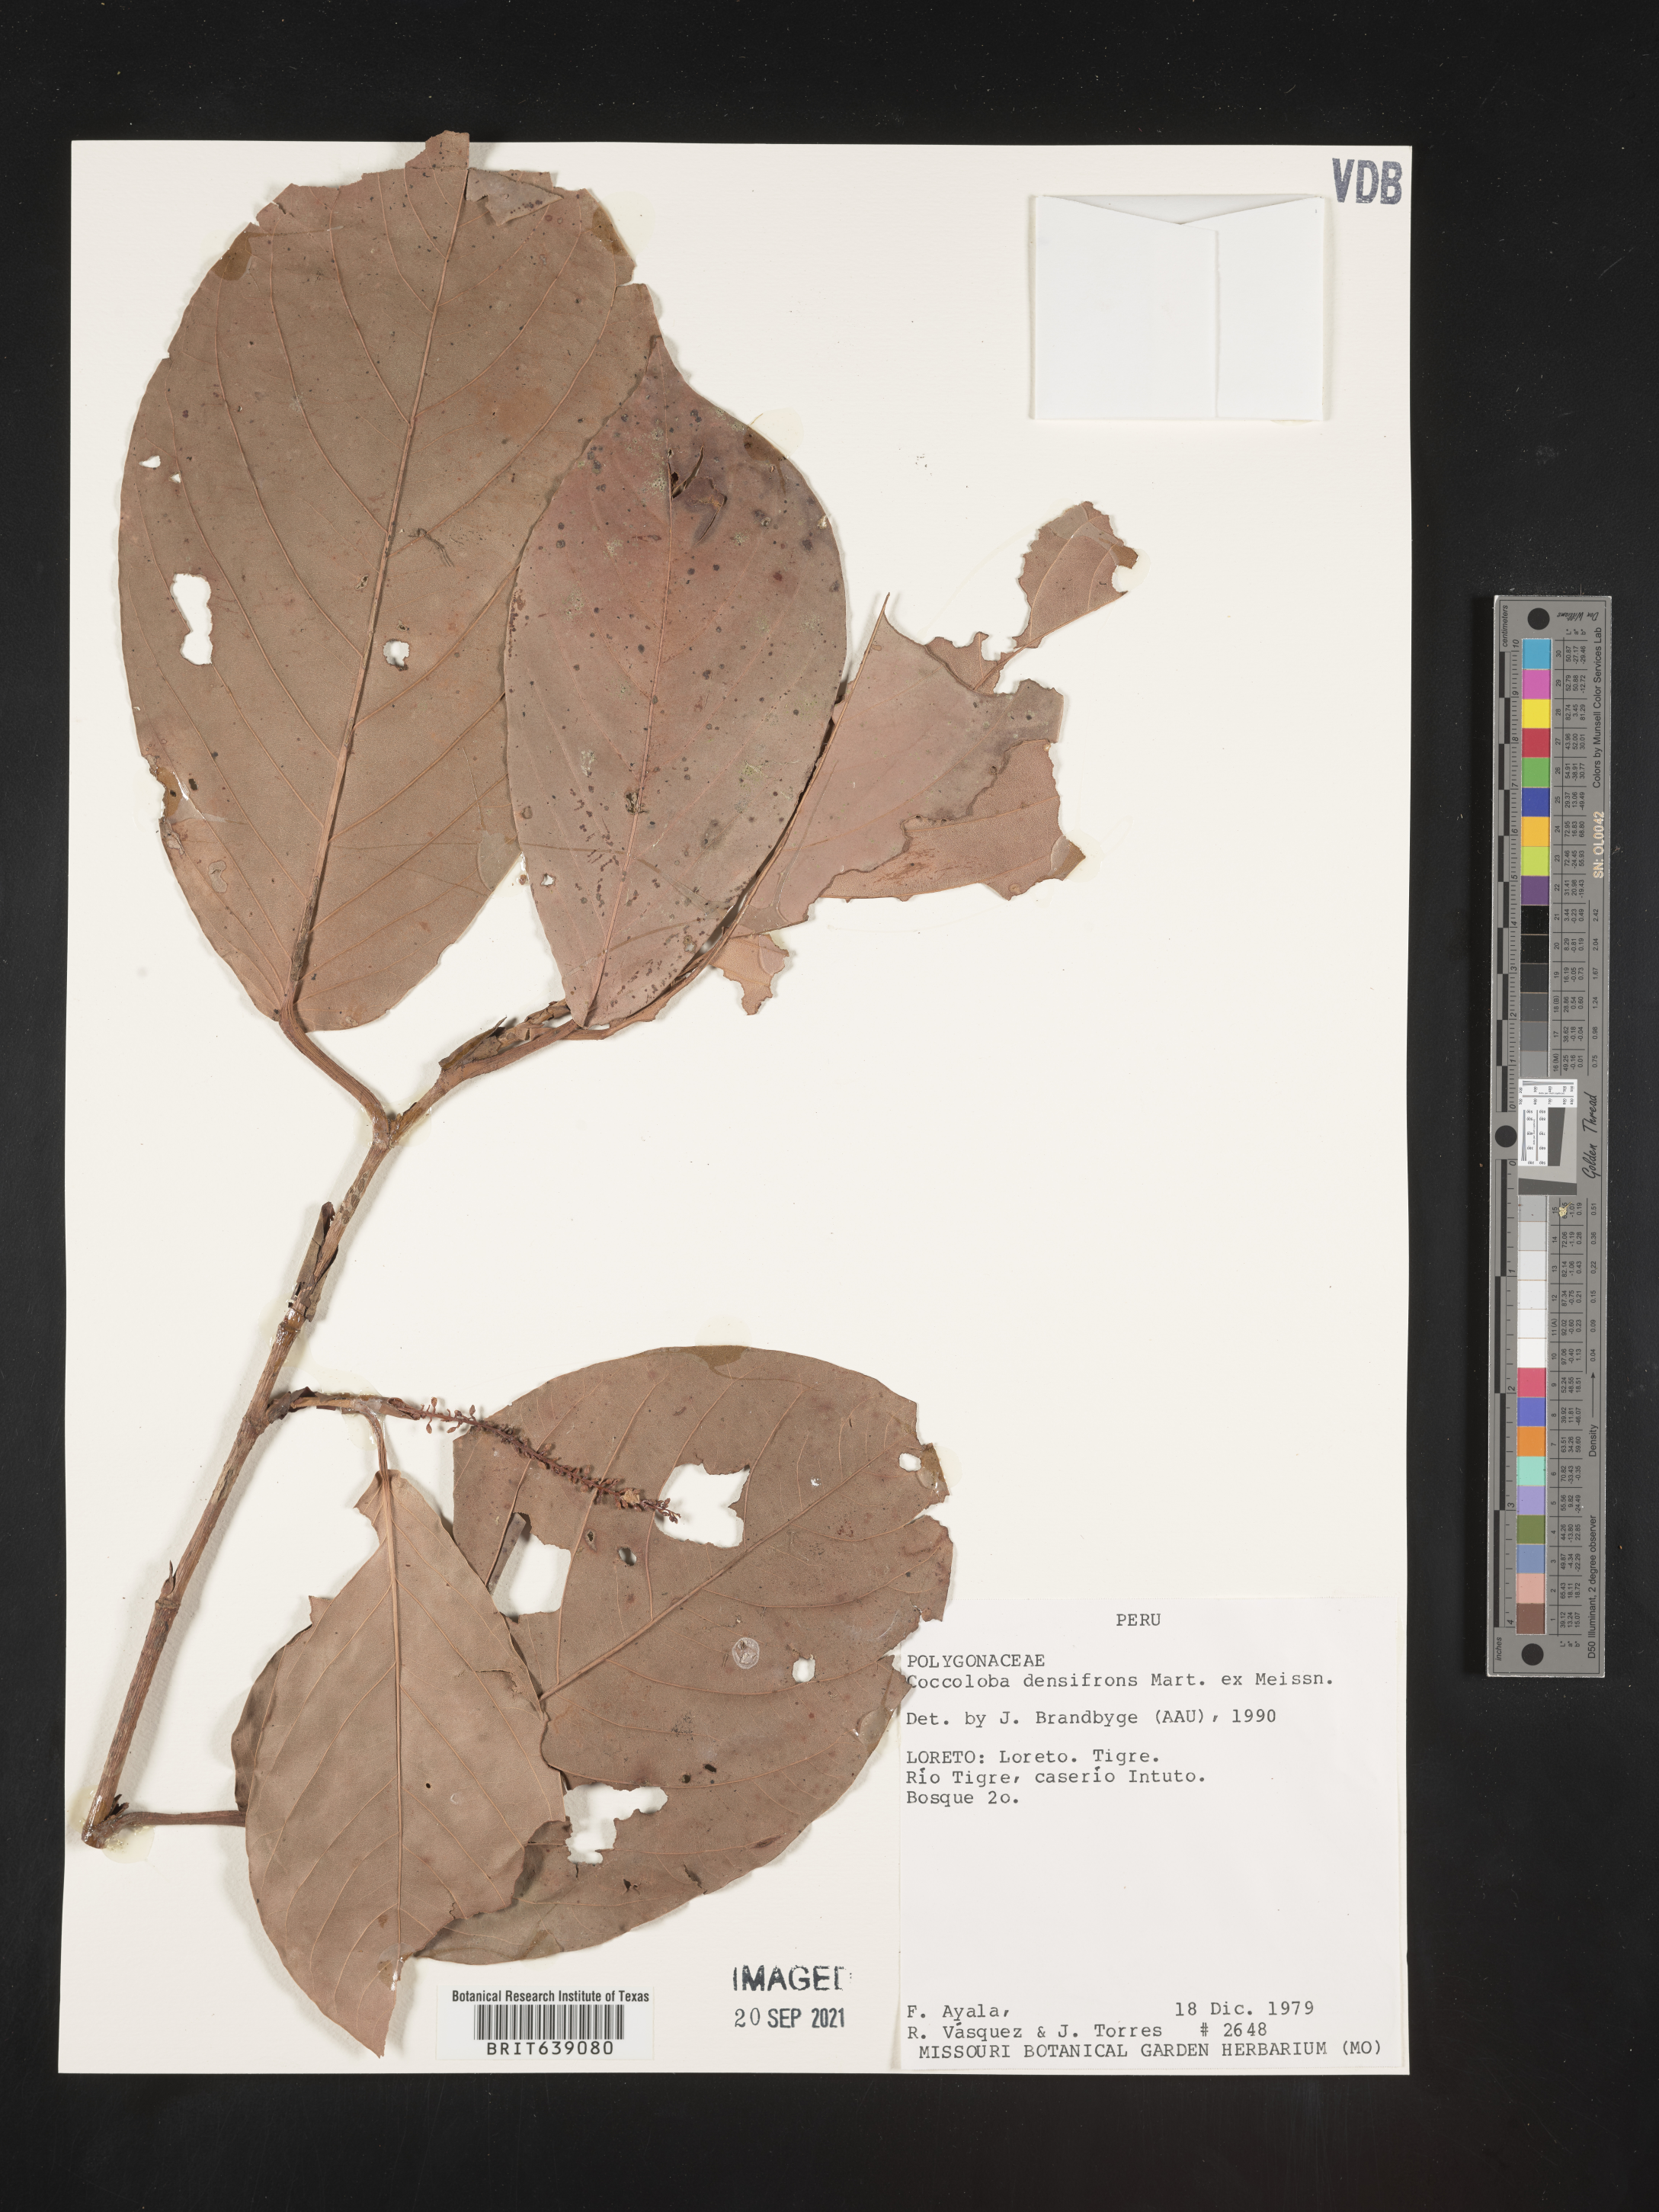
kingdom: Plantae
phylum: Tracheophyta
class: Magnoliopsida
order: Caryophyllales
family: Polygonaceae
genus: Coccoloba
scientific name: Coccoloba
